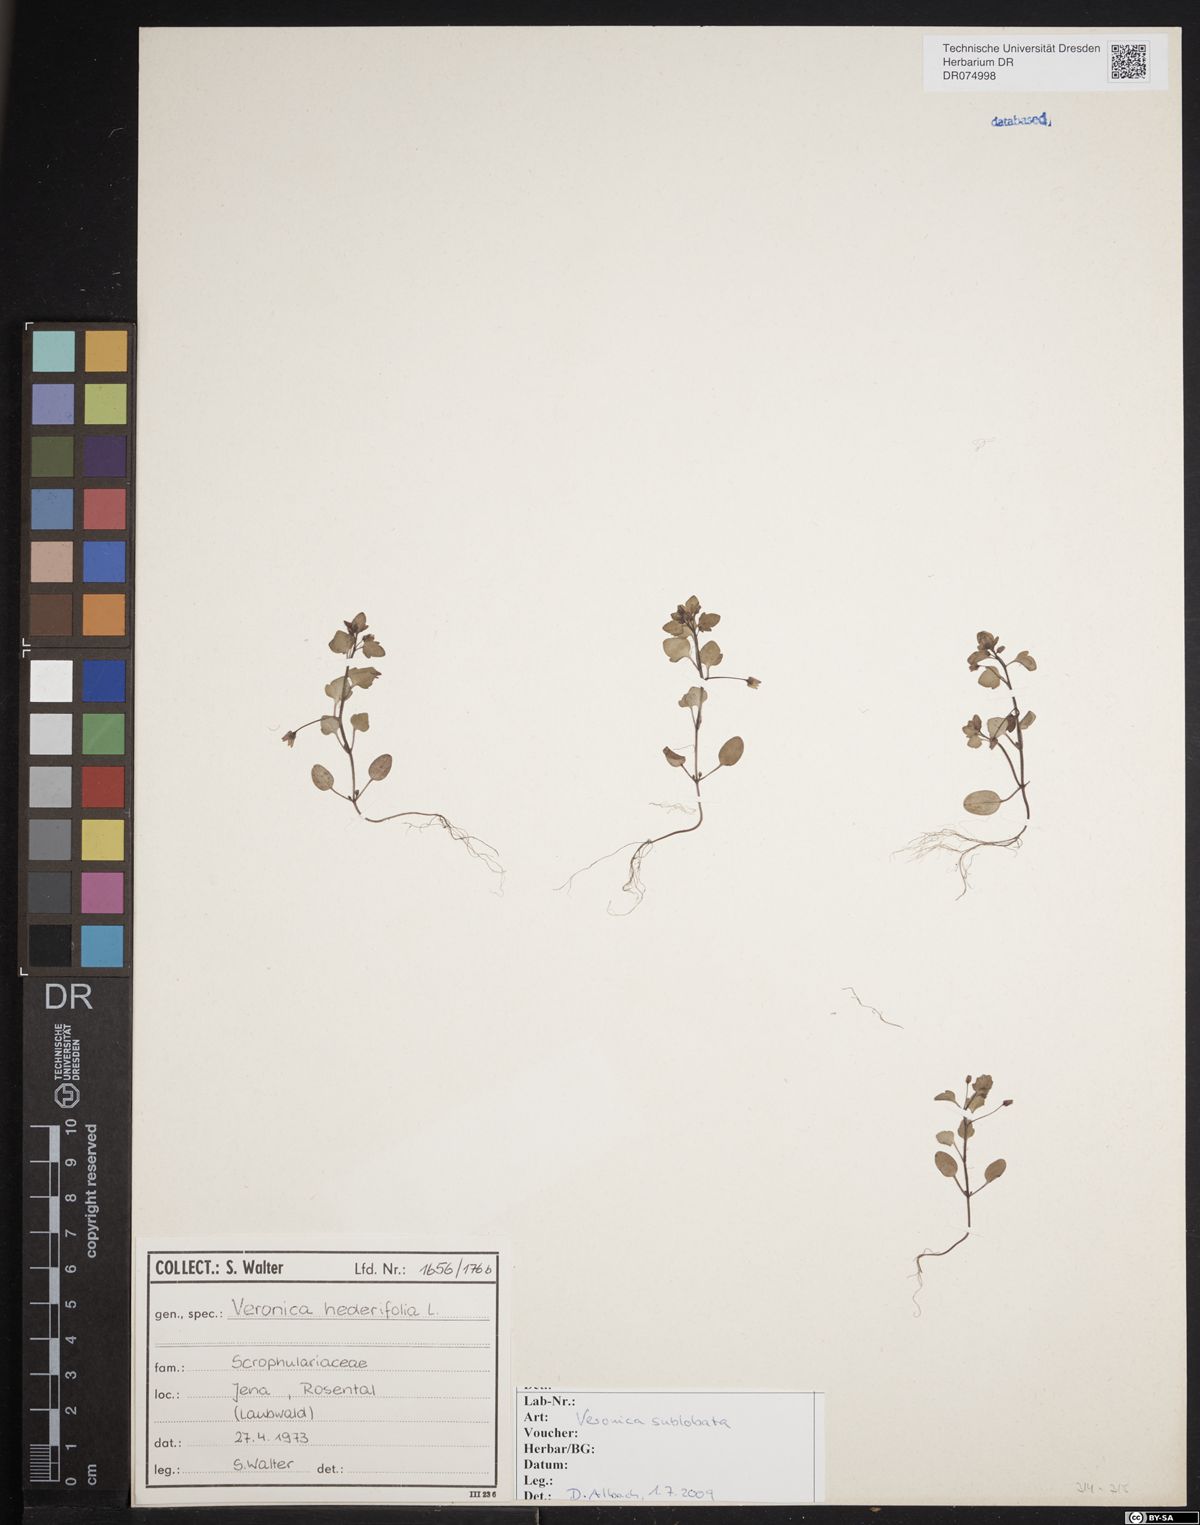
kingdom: Plantae
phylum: Tracheophyta
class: Magnoliopsida
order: Lamiales
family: Plantaginaceae
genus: Veronica
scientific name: Veronica sublobata
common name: False ivy-leaved speedwell
